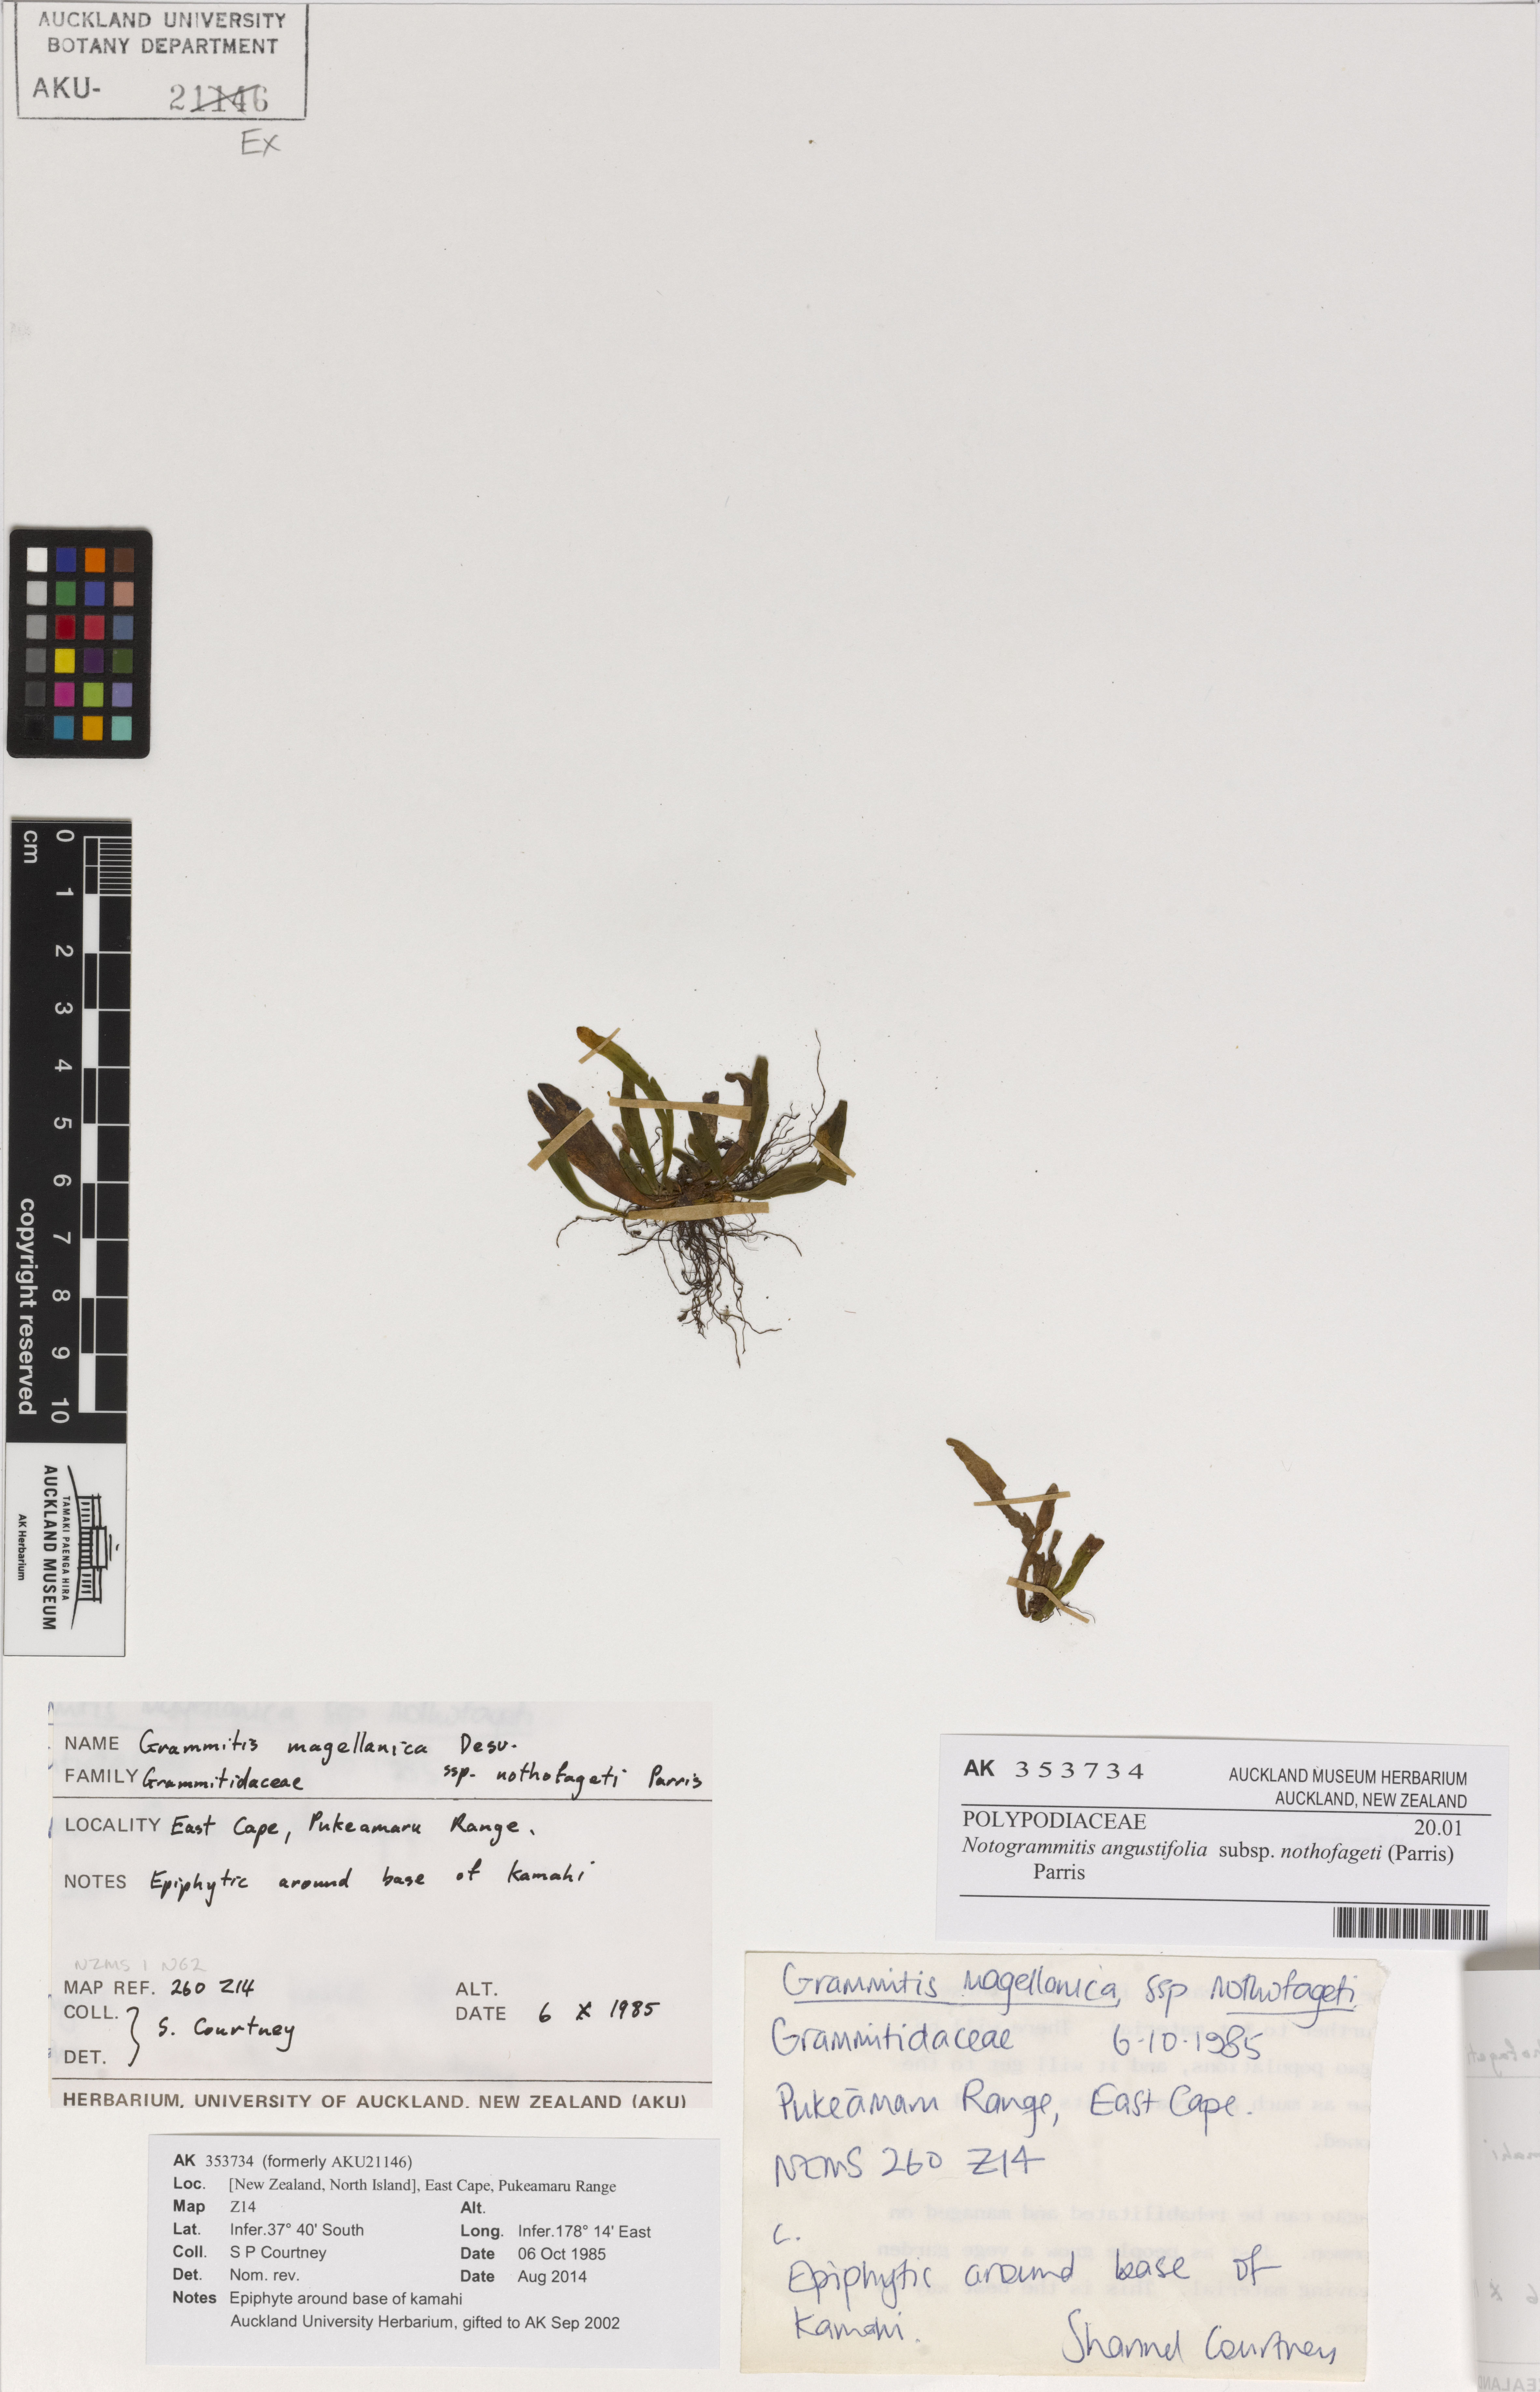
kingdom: Plantae
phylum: Tracheophyta
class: Polypodiopsida
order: Polypodiales
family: Polypodiaceae
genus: Notogrammitis
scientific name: Notogrammitis billardierei
